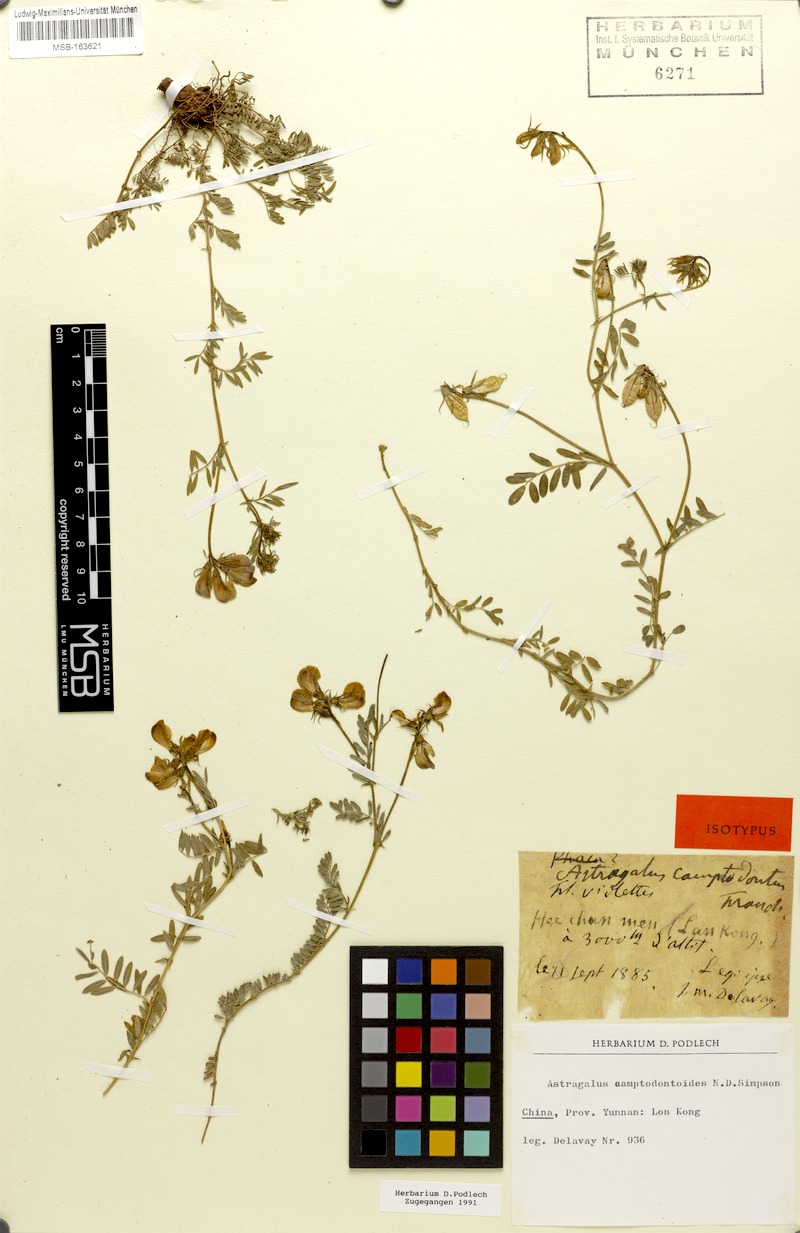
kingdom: Plantae
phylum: Tracheophyta
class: Magnoliopsida
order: Fabales
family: Fabaceae
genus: Phyllolobium
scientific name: Phyllolobium camptodontum
